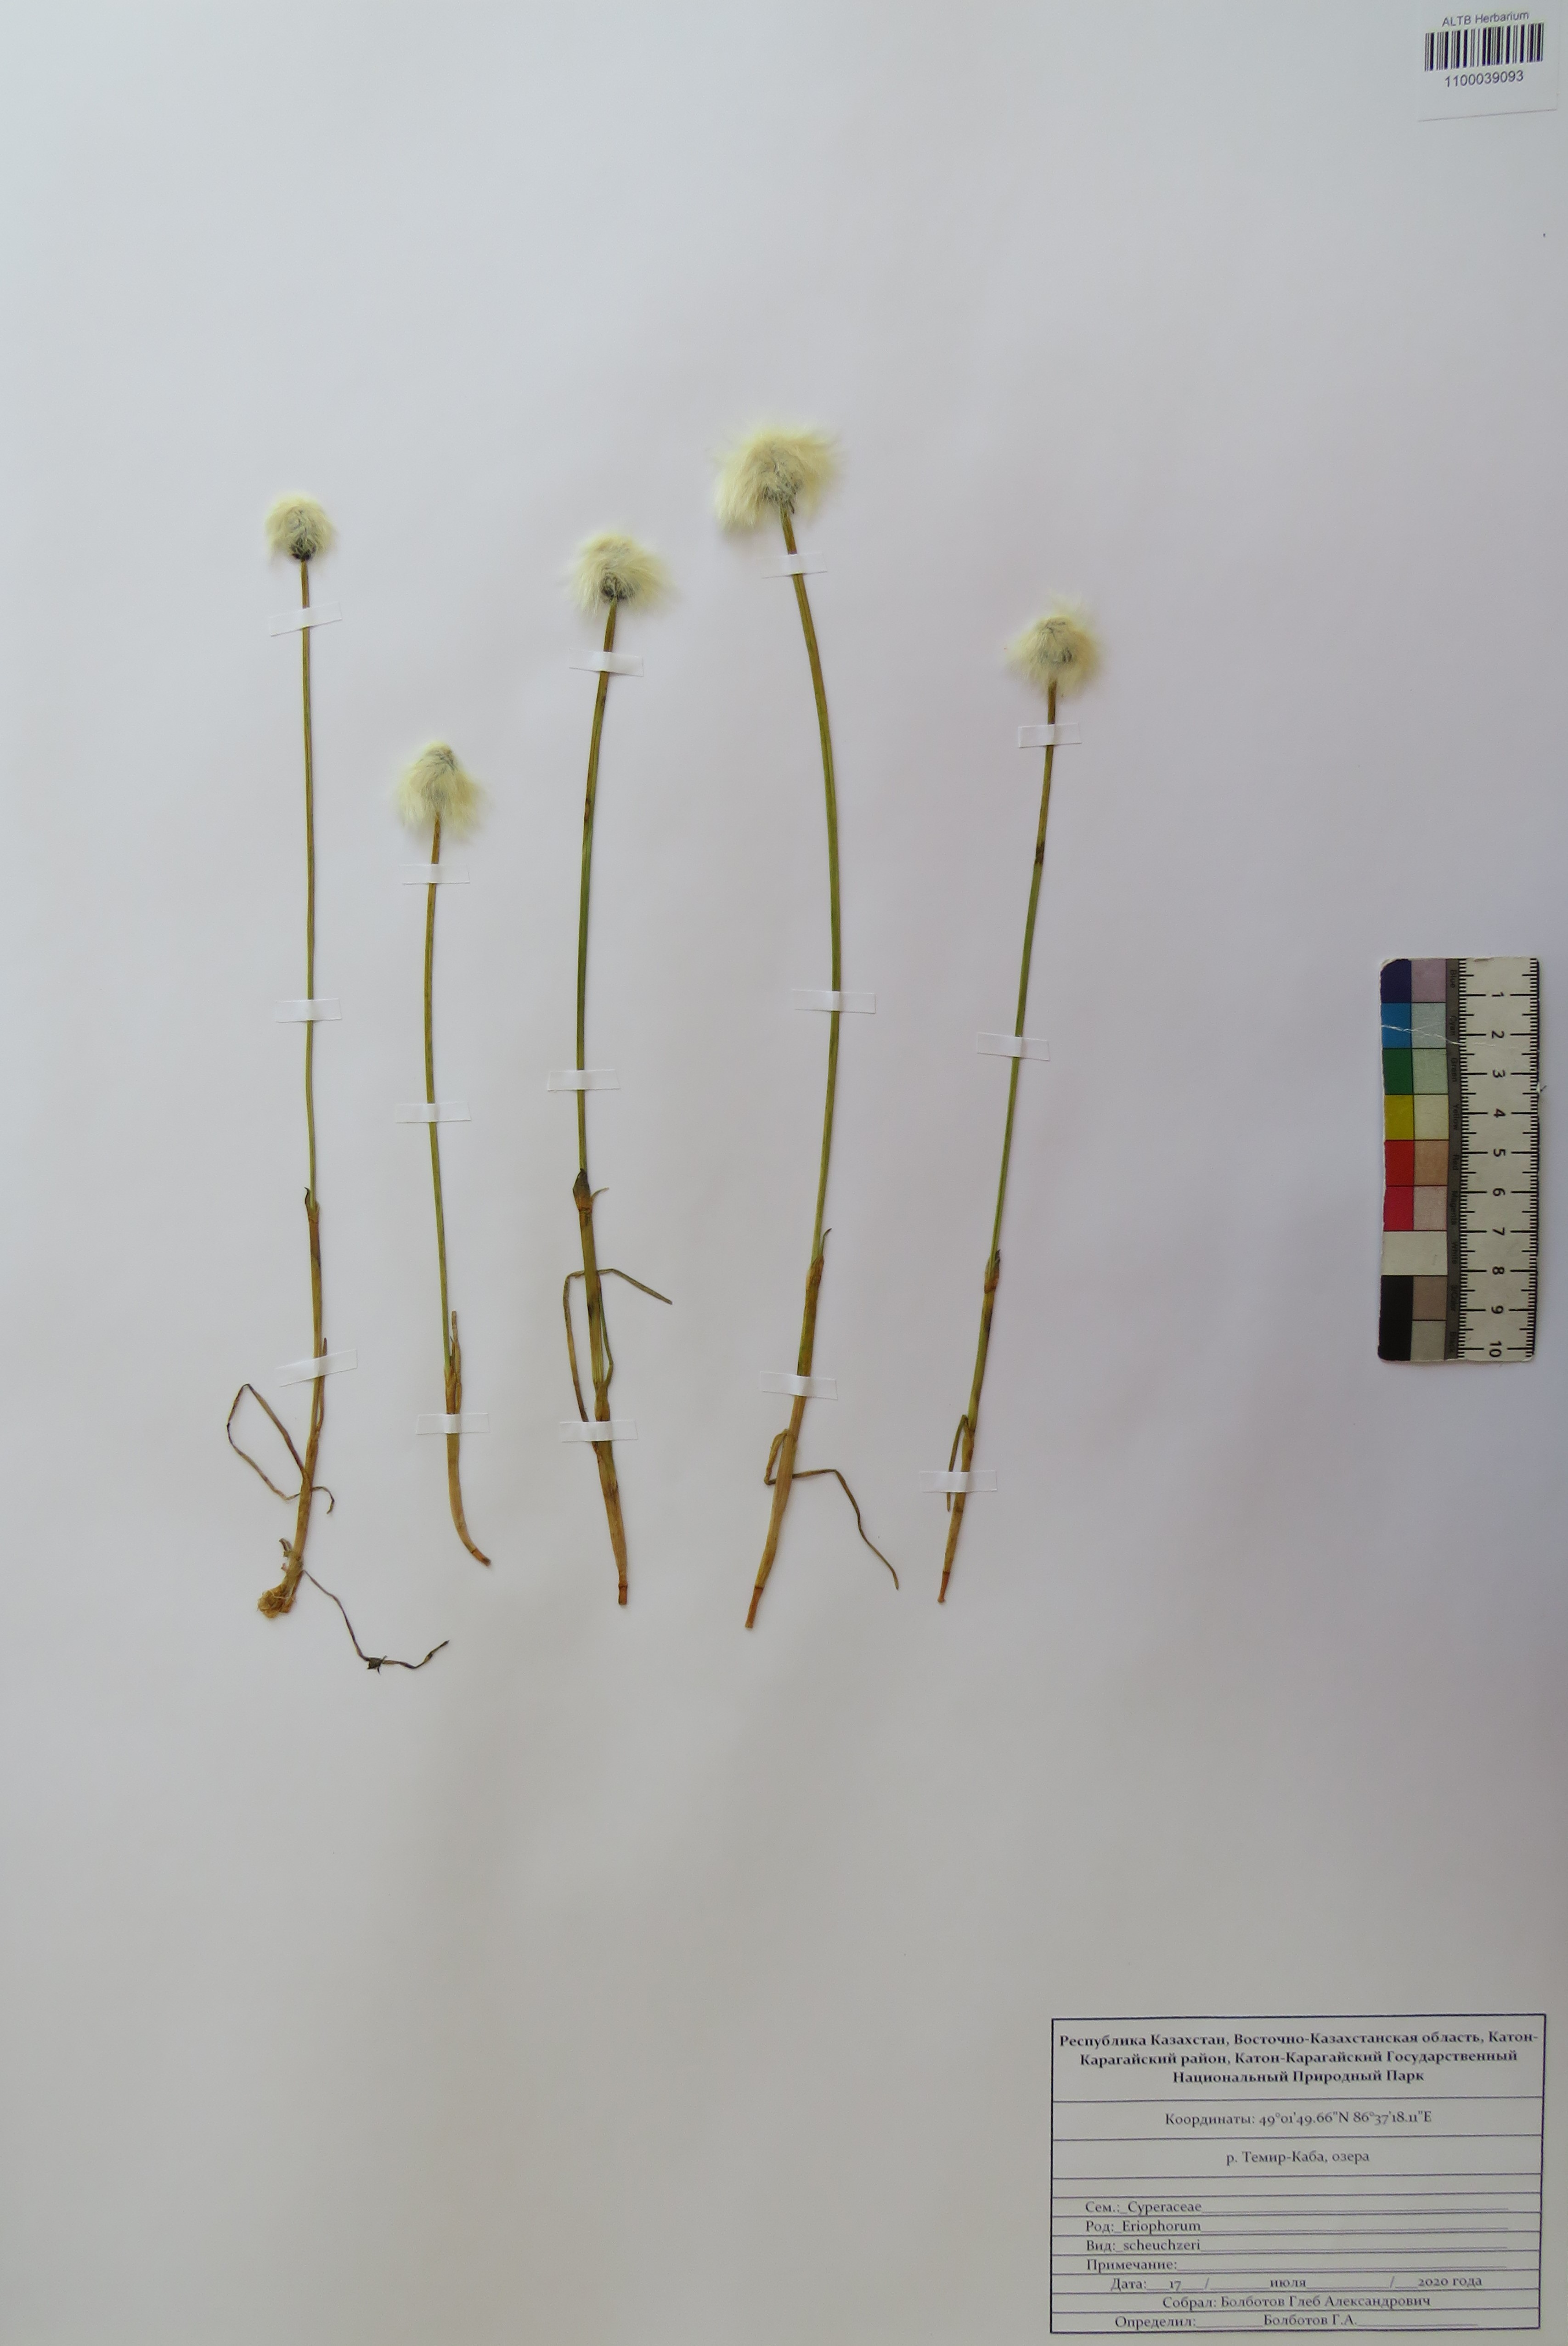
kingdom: Plantae
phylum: Tracheophyta
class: Liliopsida
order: Poales
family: Cyperaceae
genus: Eriophorum
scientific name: Eriophorum scheuchzeri
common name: Scheuchzer's cottongrass
